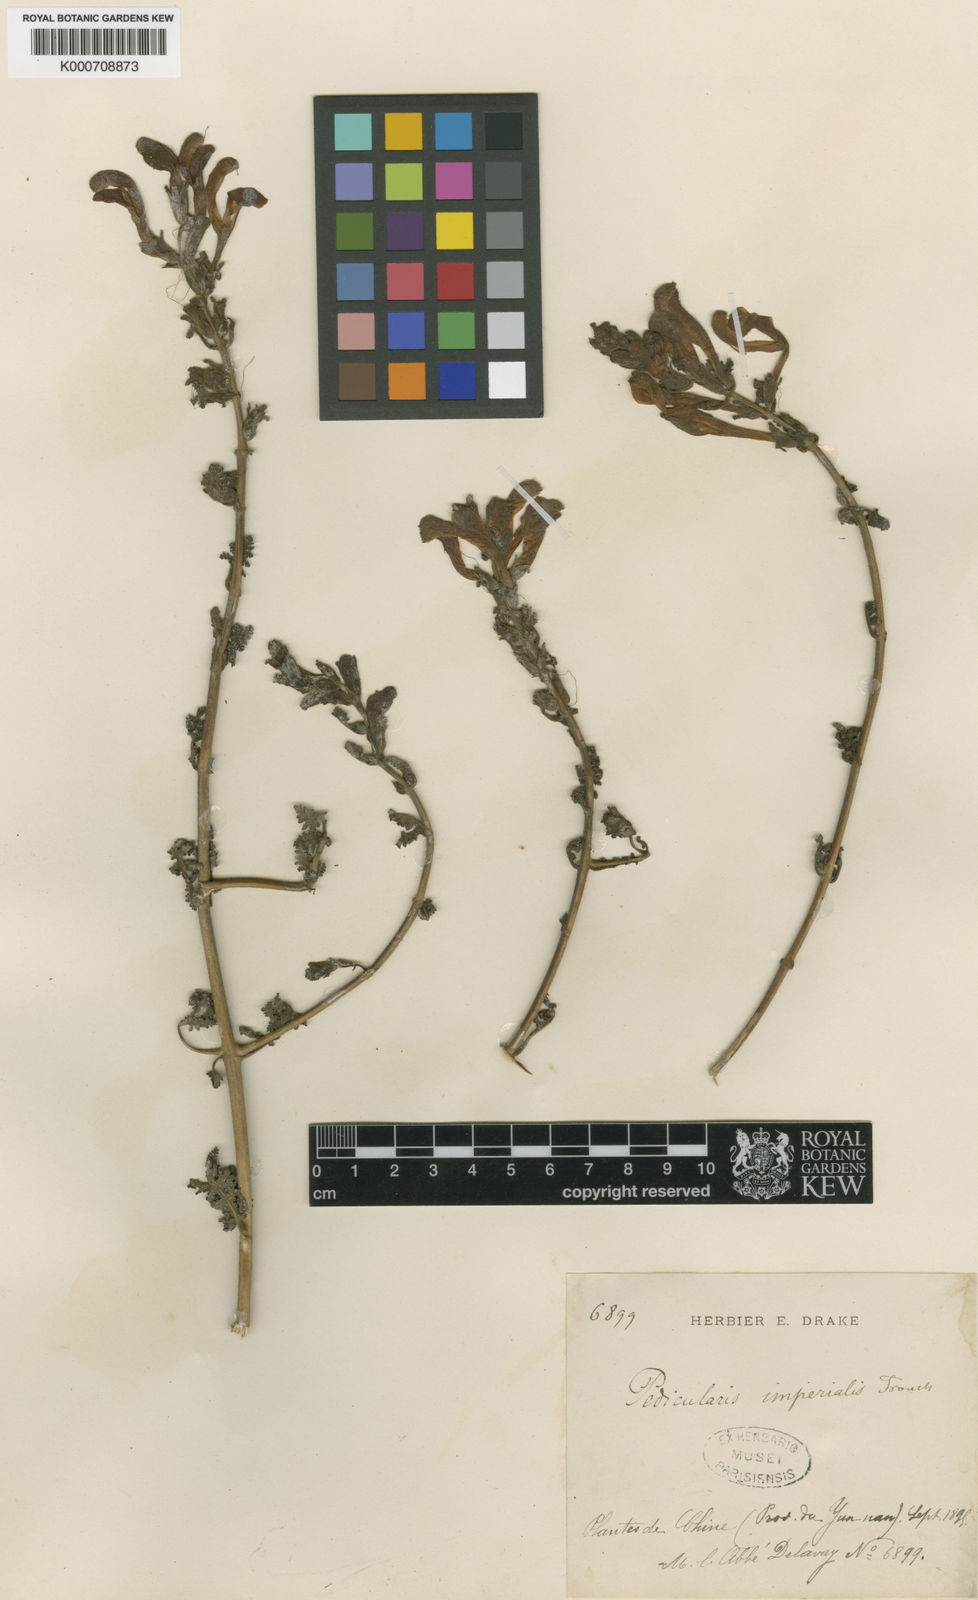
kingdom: Plantae
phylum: Tracheophyta
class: Magnoliopsida
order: Lamiales
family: Orobanchaceae
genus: Pedicularis
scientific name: Pedicularis imperialis
